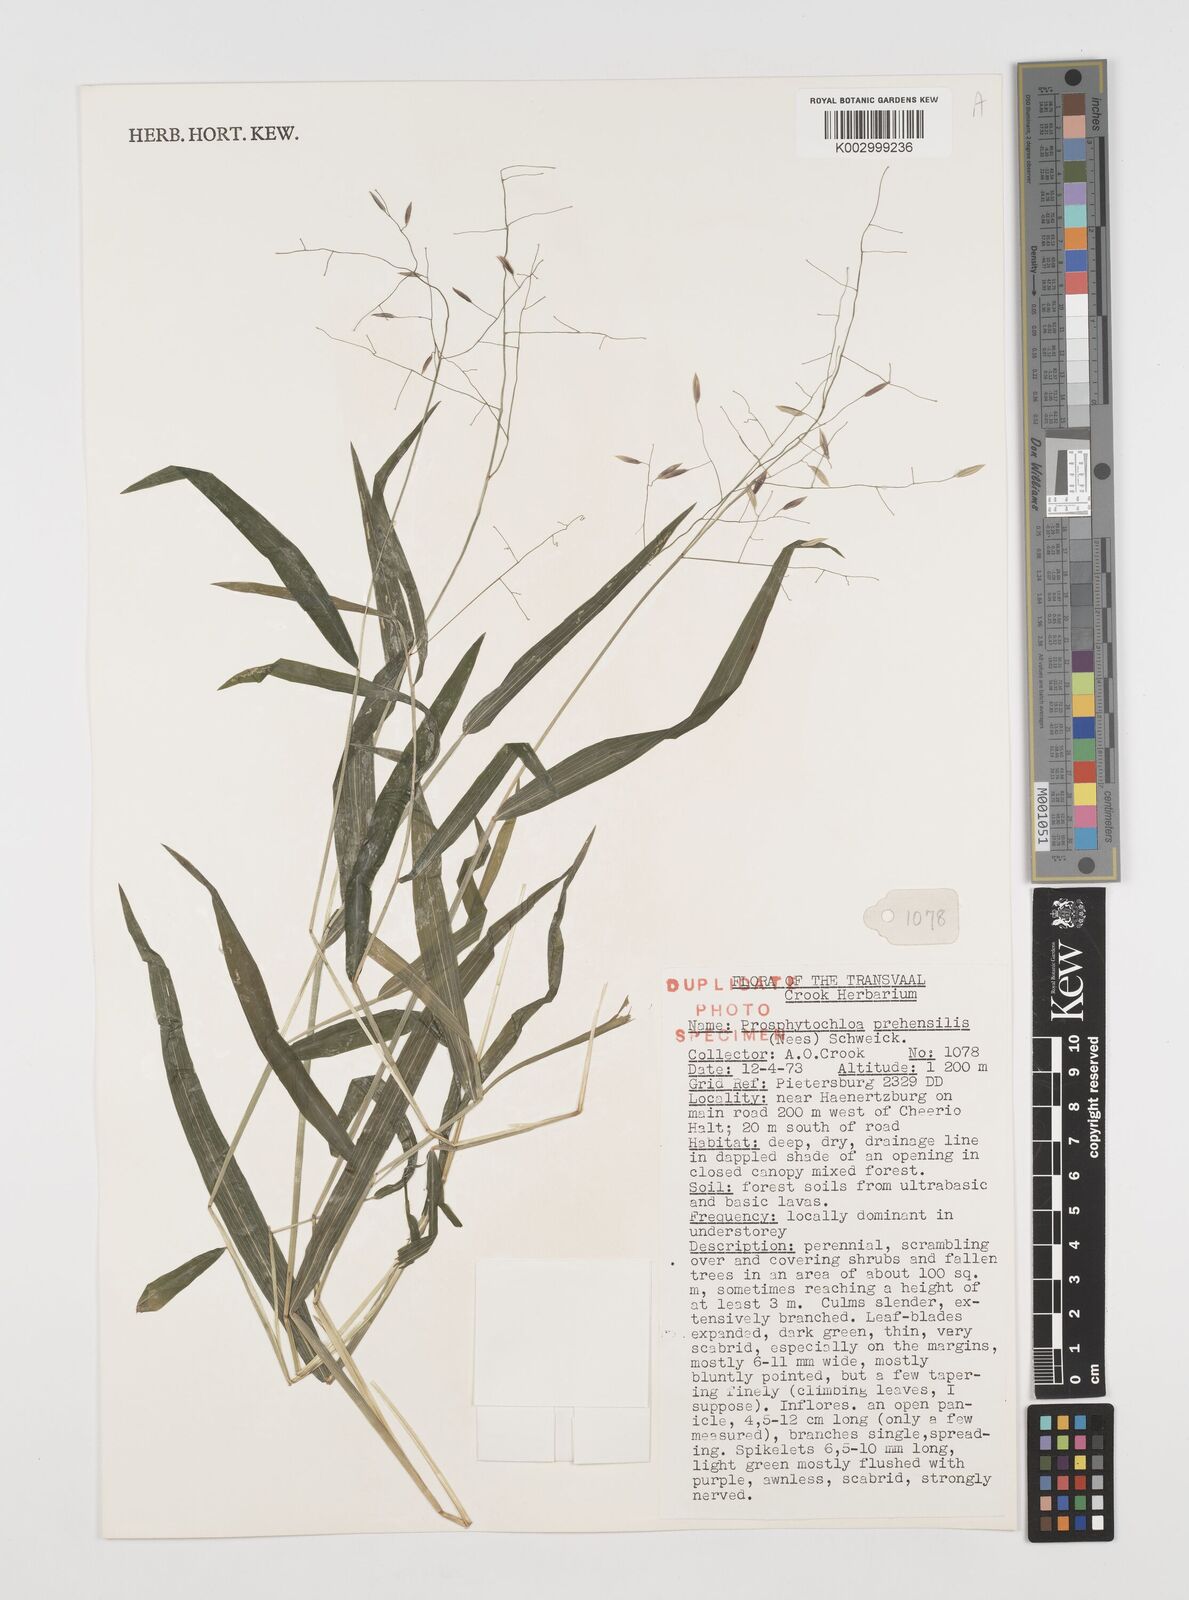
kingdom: Plantae
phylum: Tracheophyta
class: Liliopsida
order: Poales
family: Poaceae
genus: Prosphytochloa
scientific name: Prosphytochloa prehensilis
